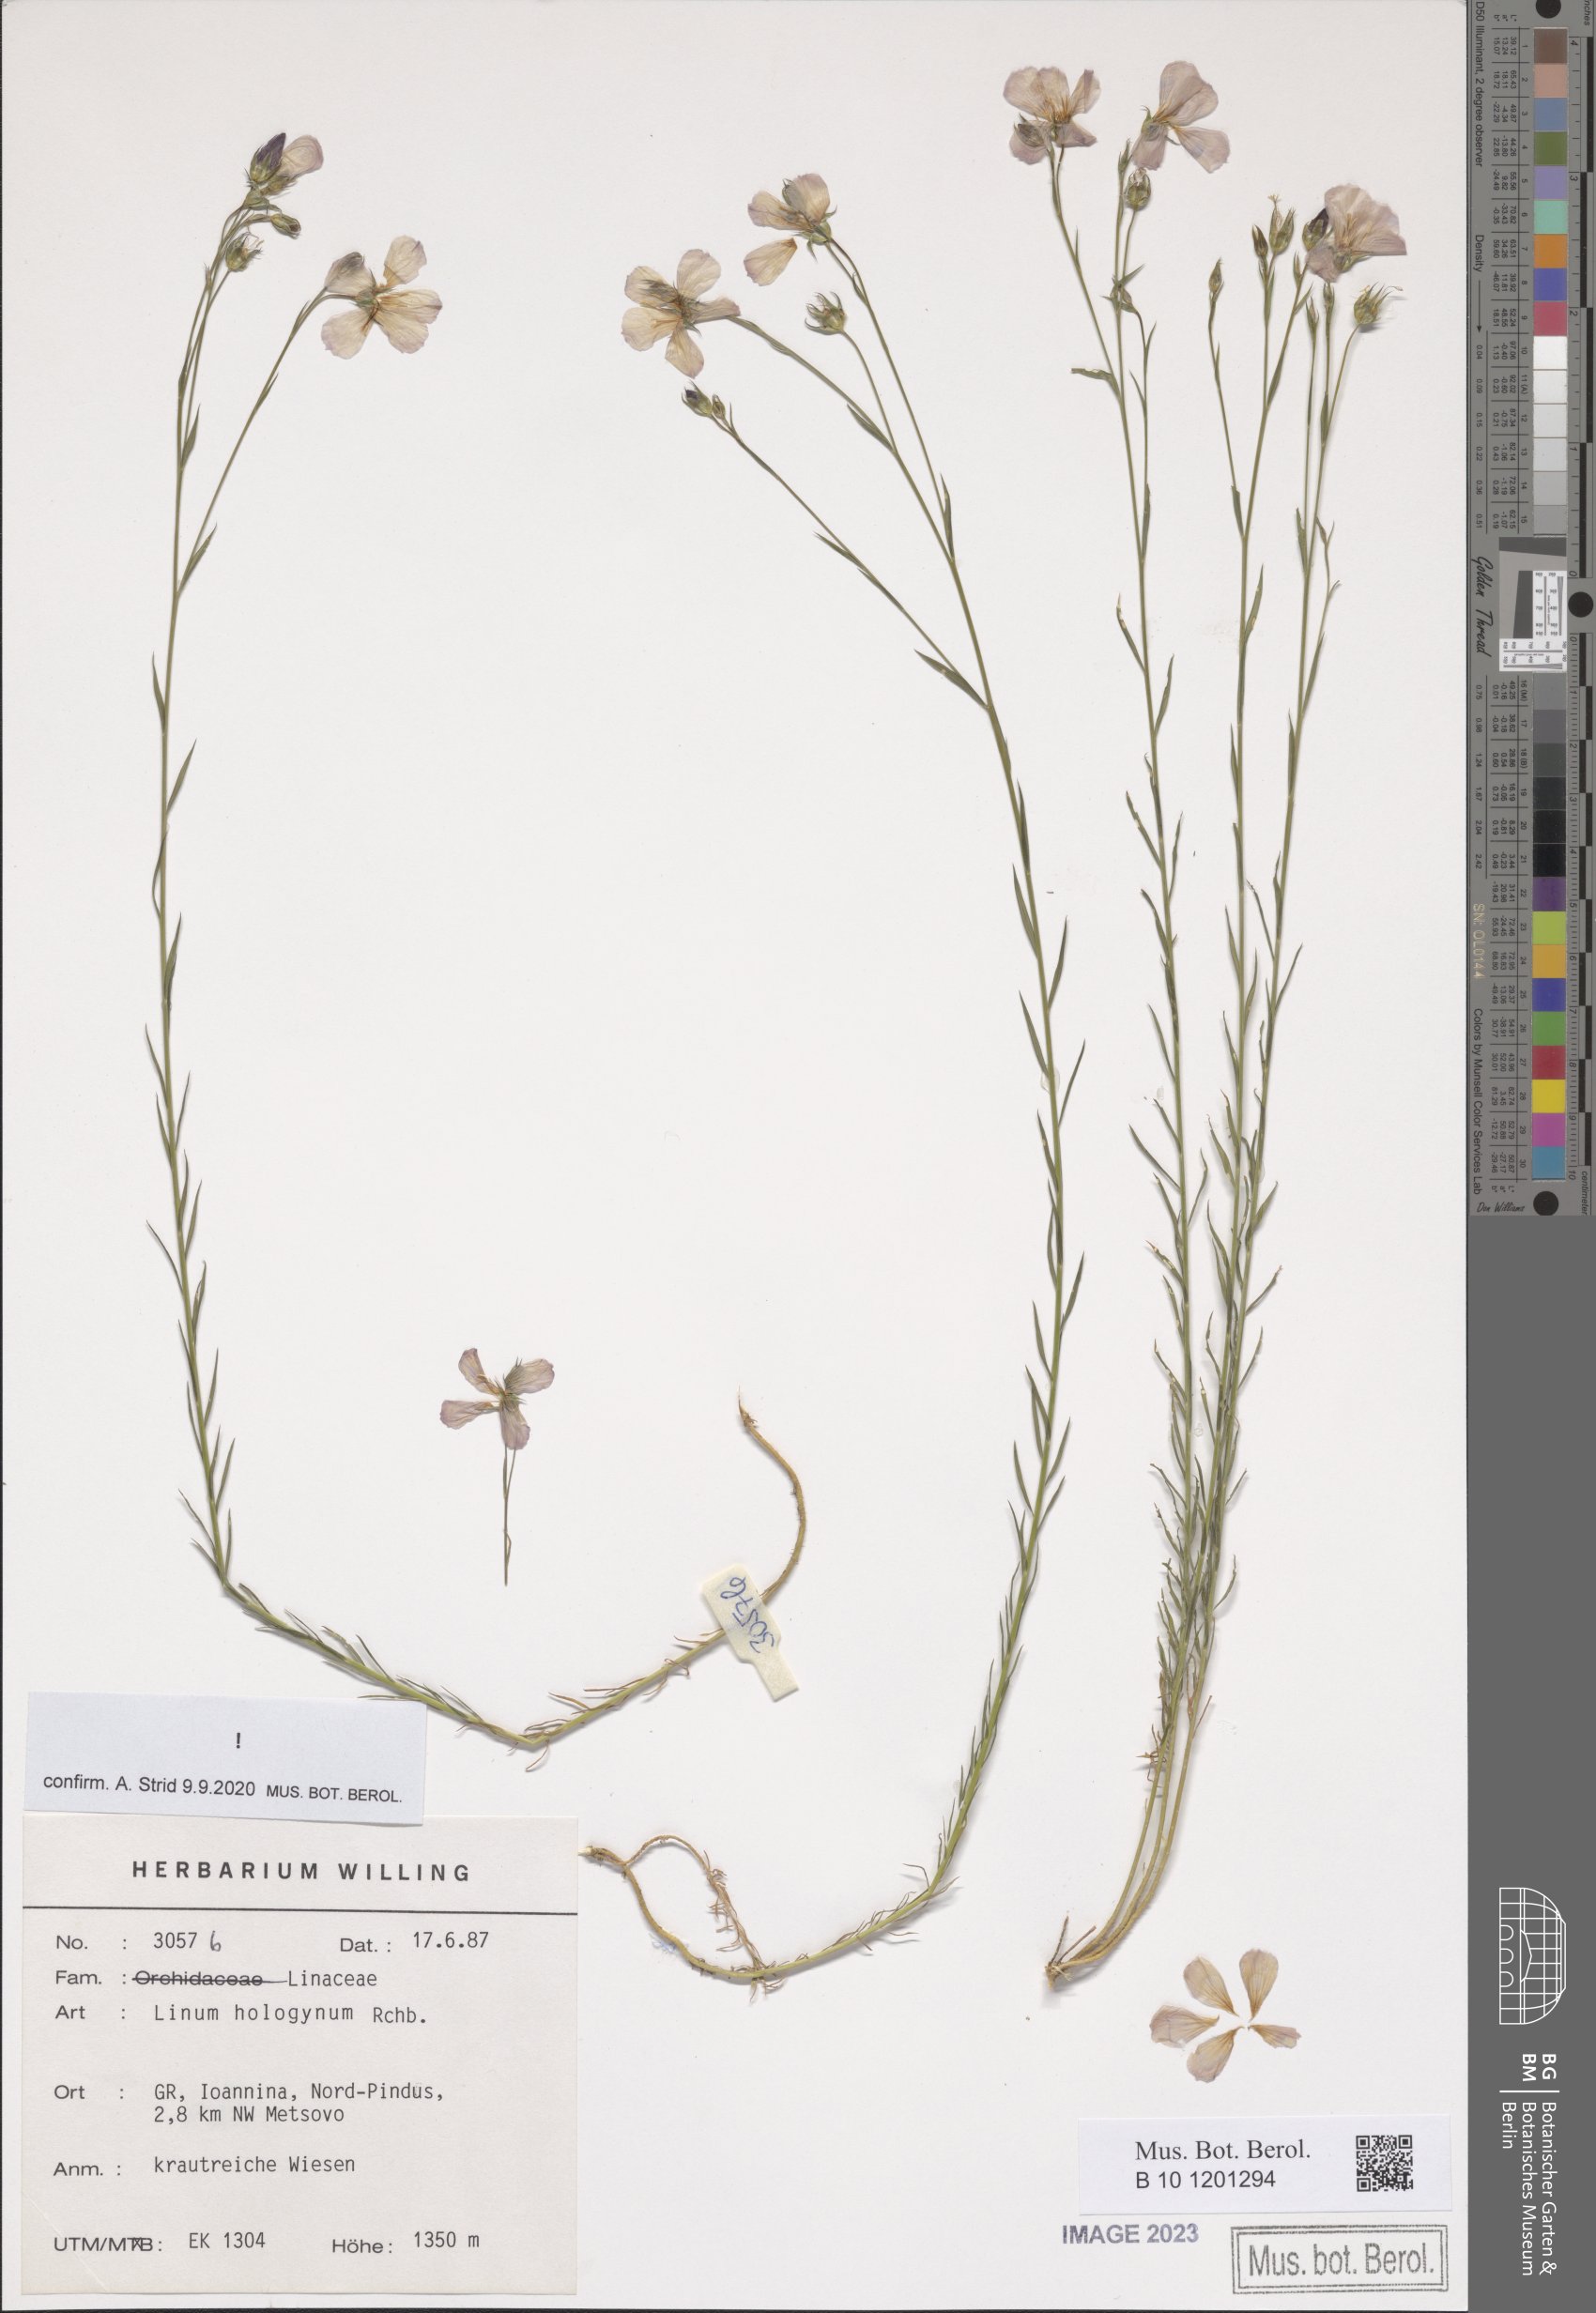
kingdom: Plantae
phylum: Tracheophyta
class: Magnoliopsida
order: Malpighiales
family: Linaceae
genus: Linum
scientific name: Linum hologynum
